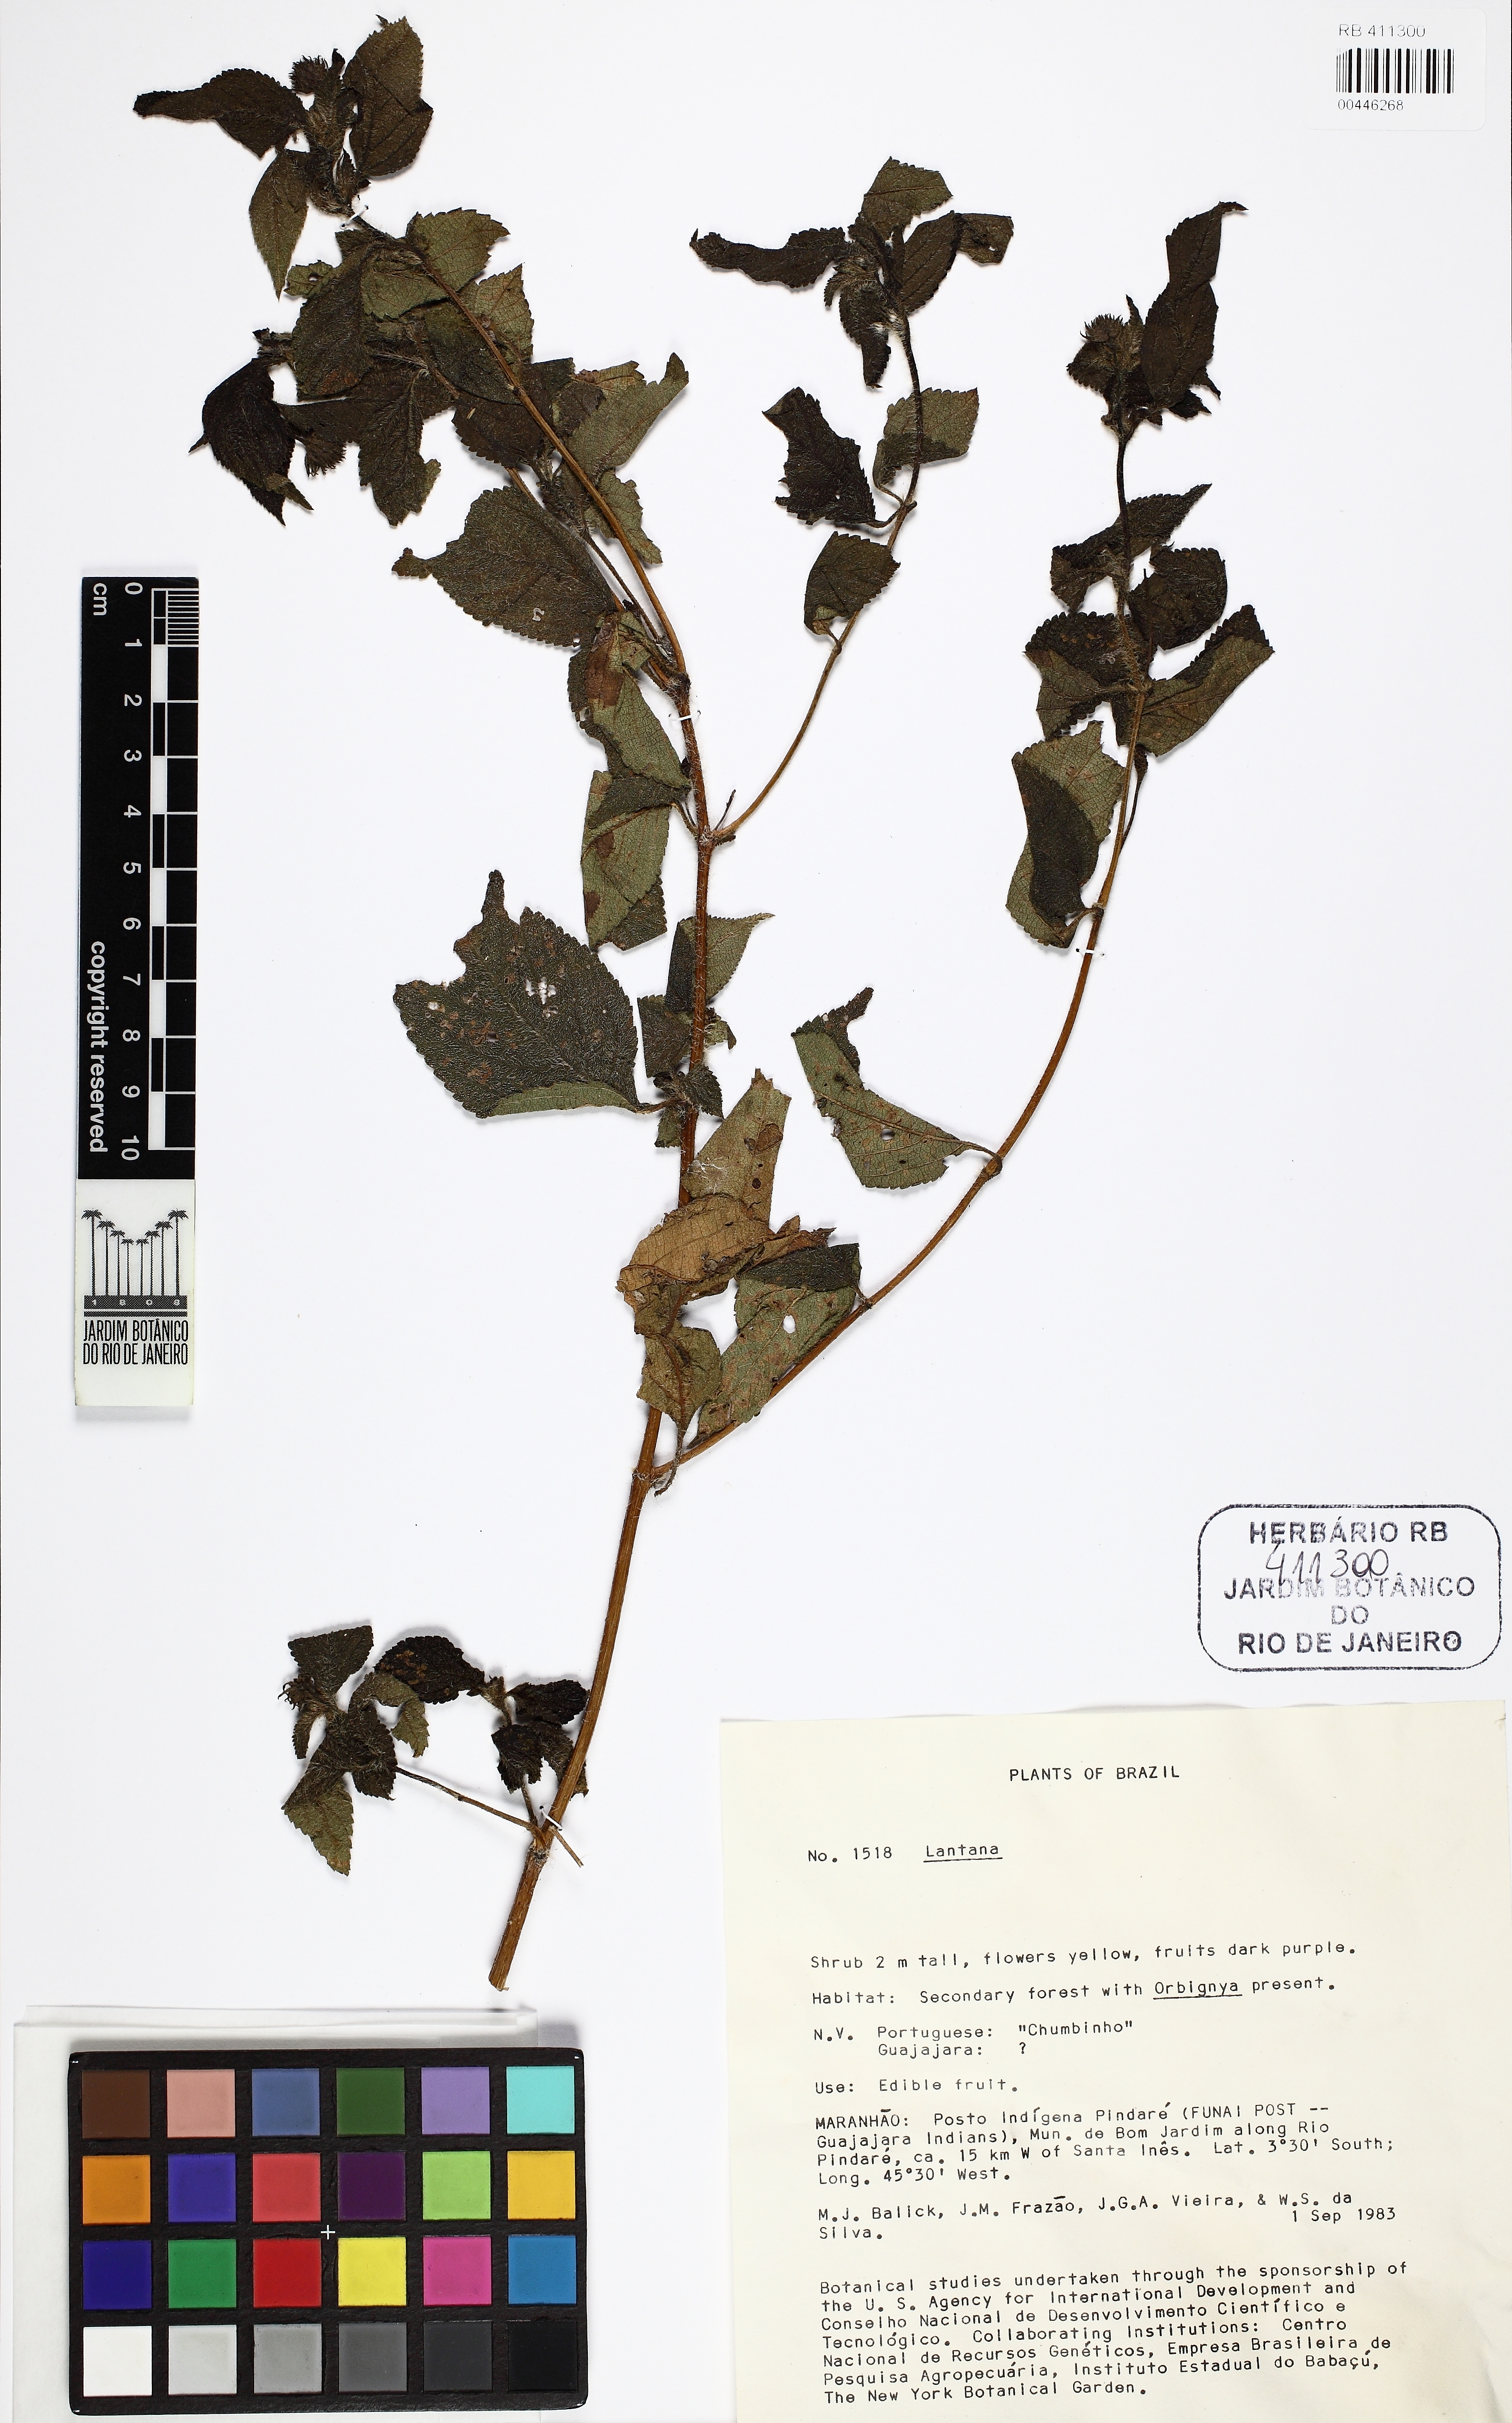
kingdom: Plantae
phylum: Tracheophyta
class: Magnoliopsida
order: Lamiales
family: Verbenaceae
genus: Lantana
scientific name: Lantana
